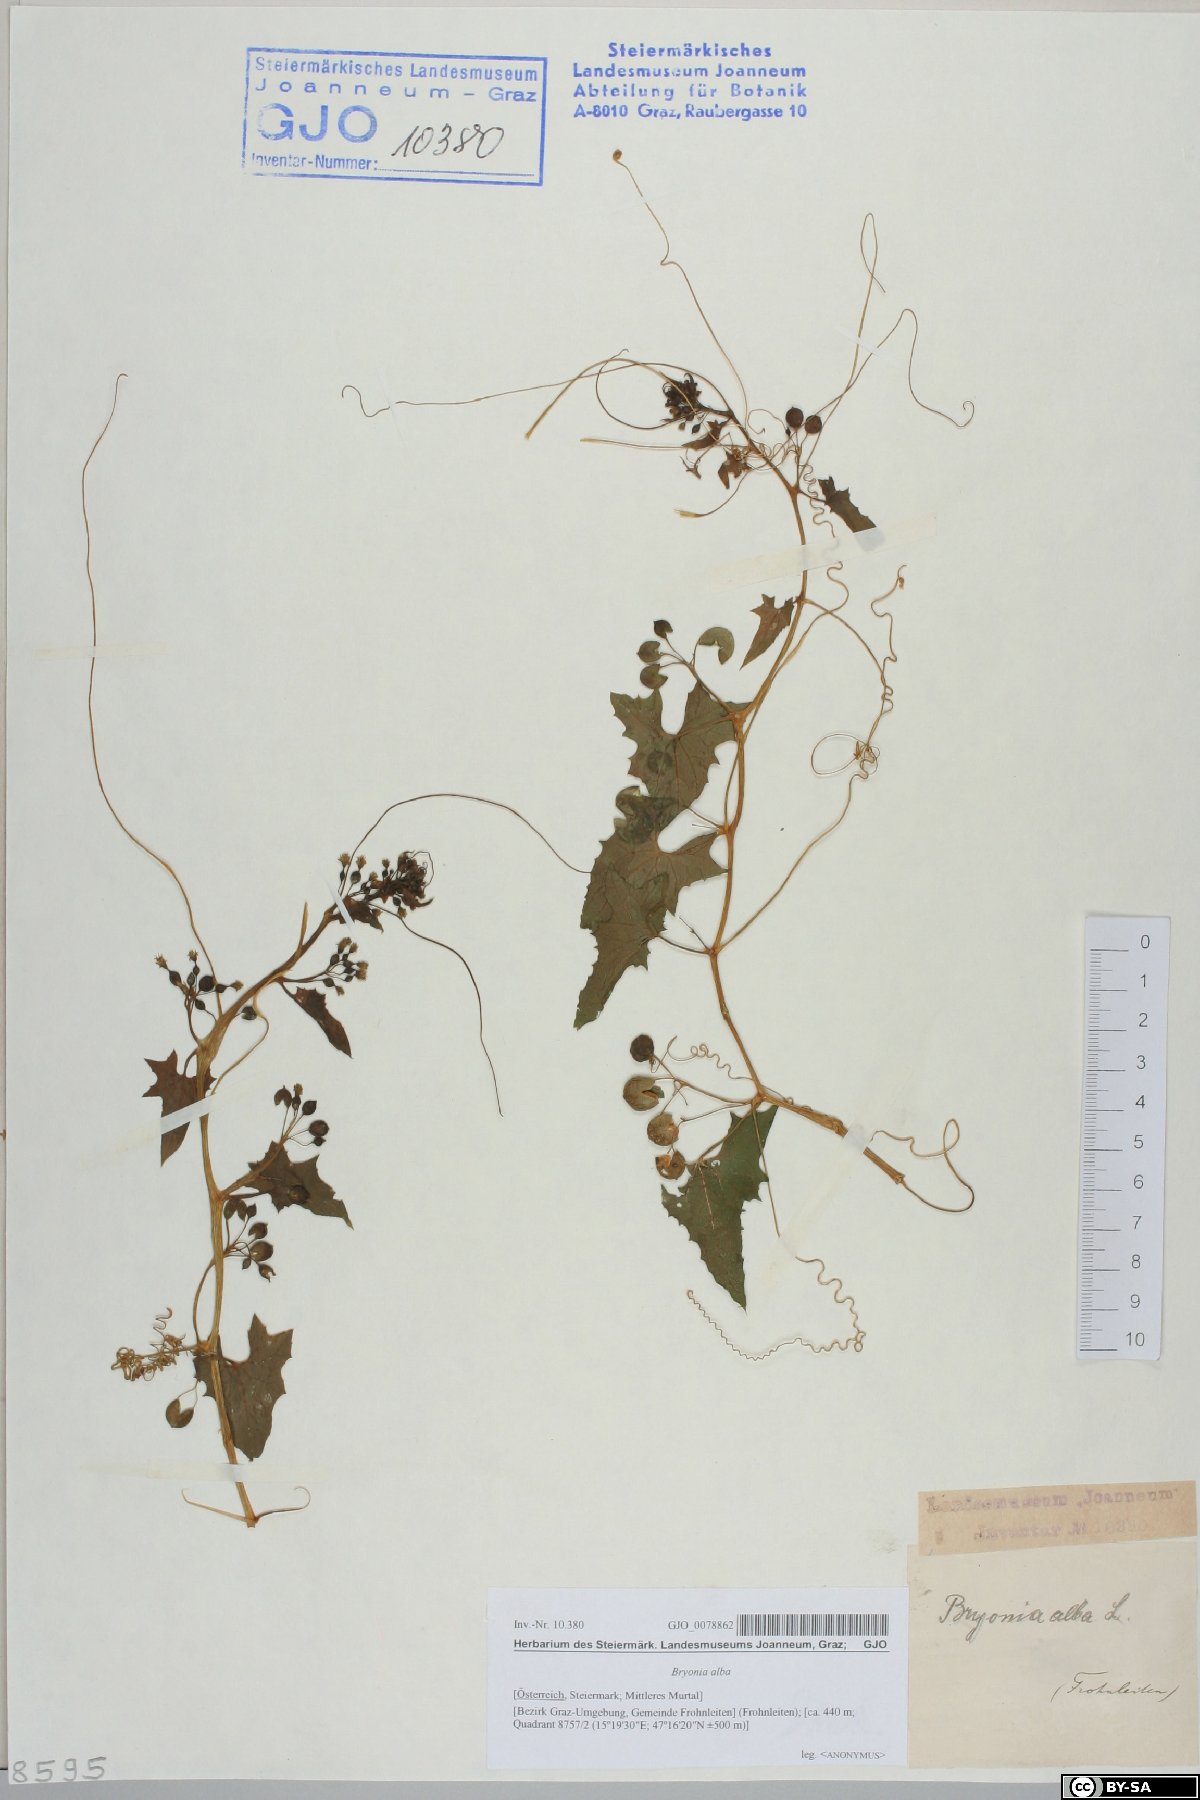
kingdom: Plantae
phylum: Tracheophyta
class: Magnoliopsida
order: Cucurbitales
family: Cucurbitaceae
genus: Bryonia
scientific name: Bryonia alba
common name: White bryony
